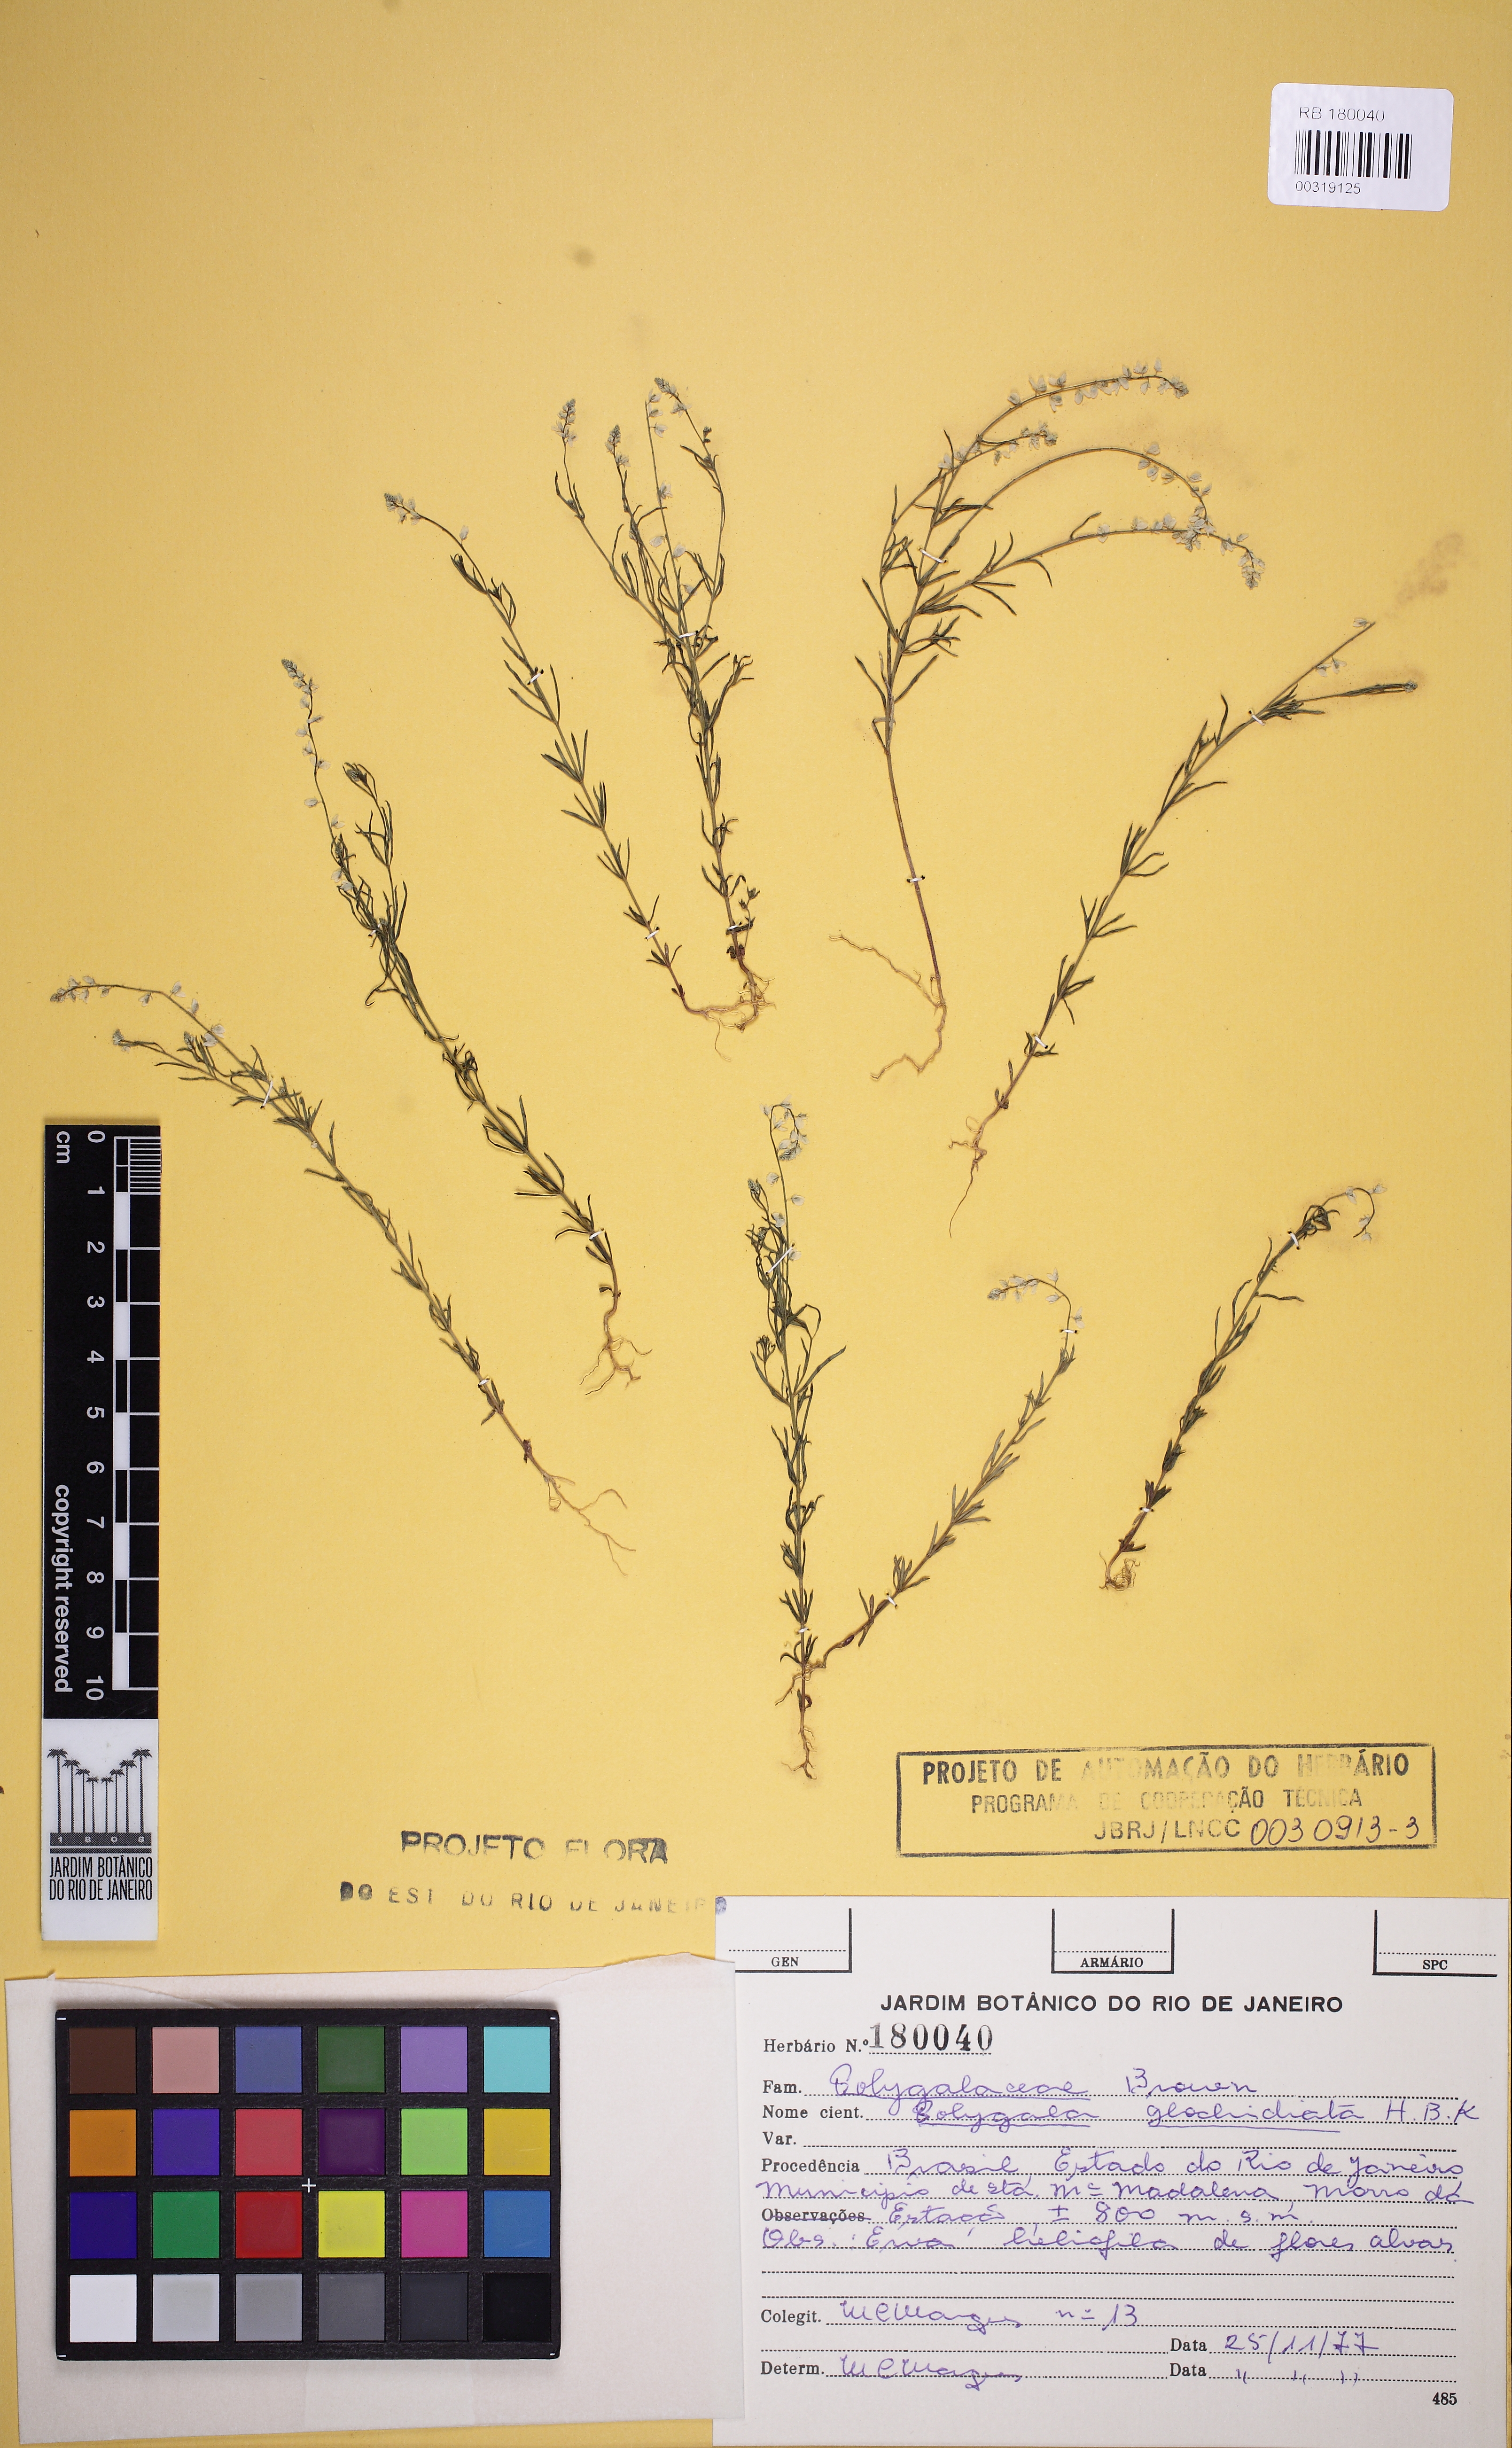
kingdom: Plantae
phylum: Tracheophyta
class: Magnoliopsida
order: Fabales
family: Polygalaceae
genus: Polygala
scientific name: Polygala glochidiata
